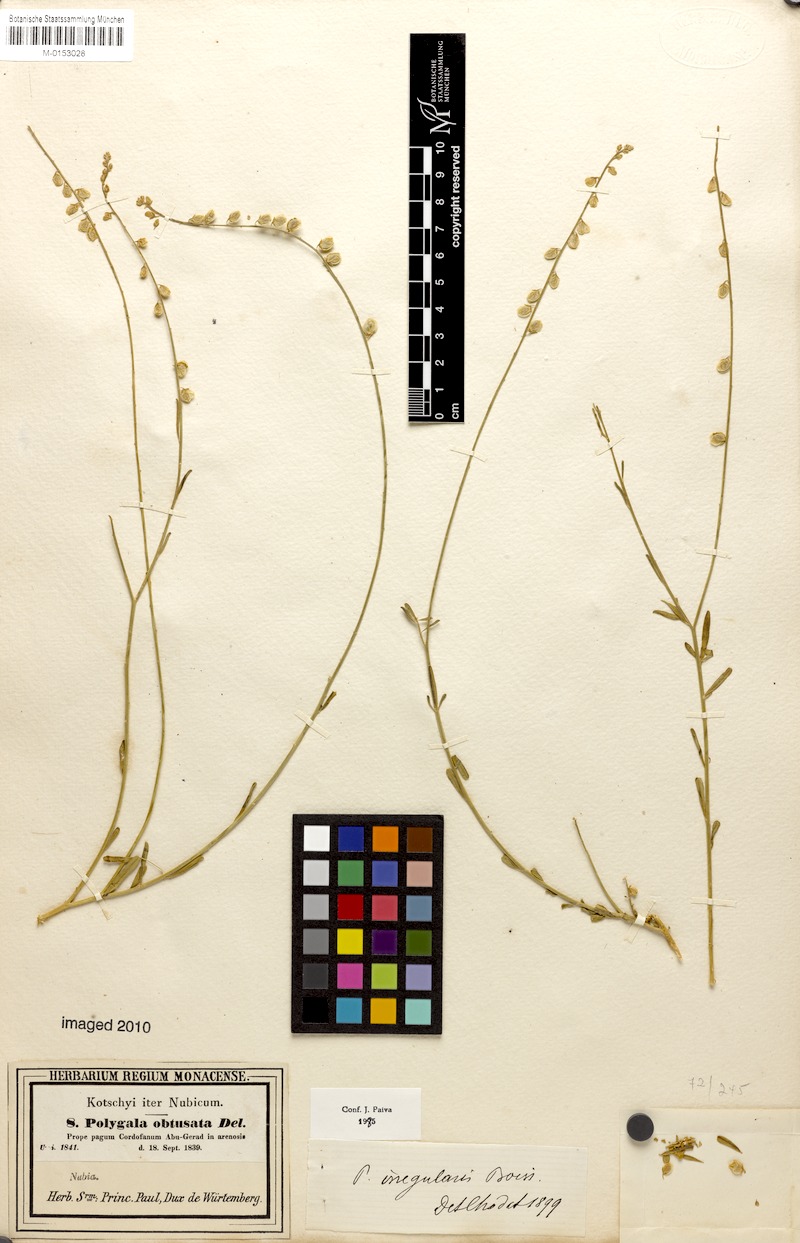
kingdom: Plantae
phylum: Tracheophyta
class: Magnoliopsida
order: Fabales
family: Polygalaceae
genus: Polygala
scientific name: Polygala irregularis
